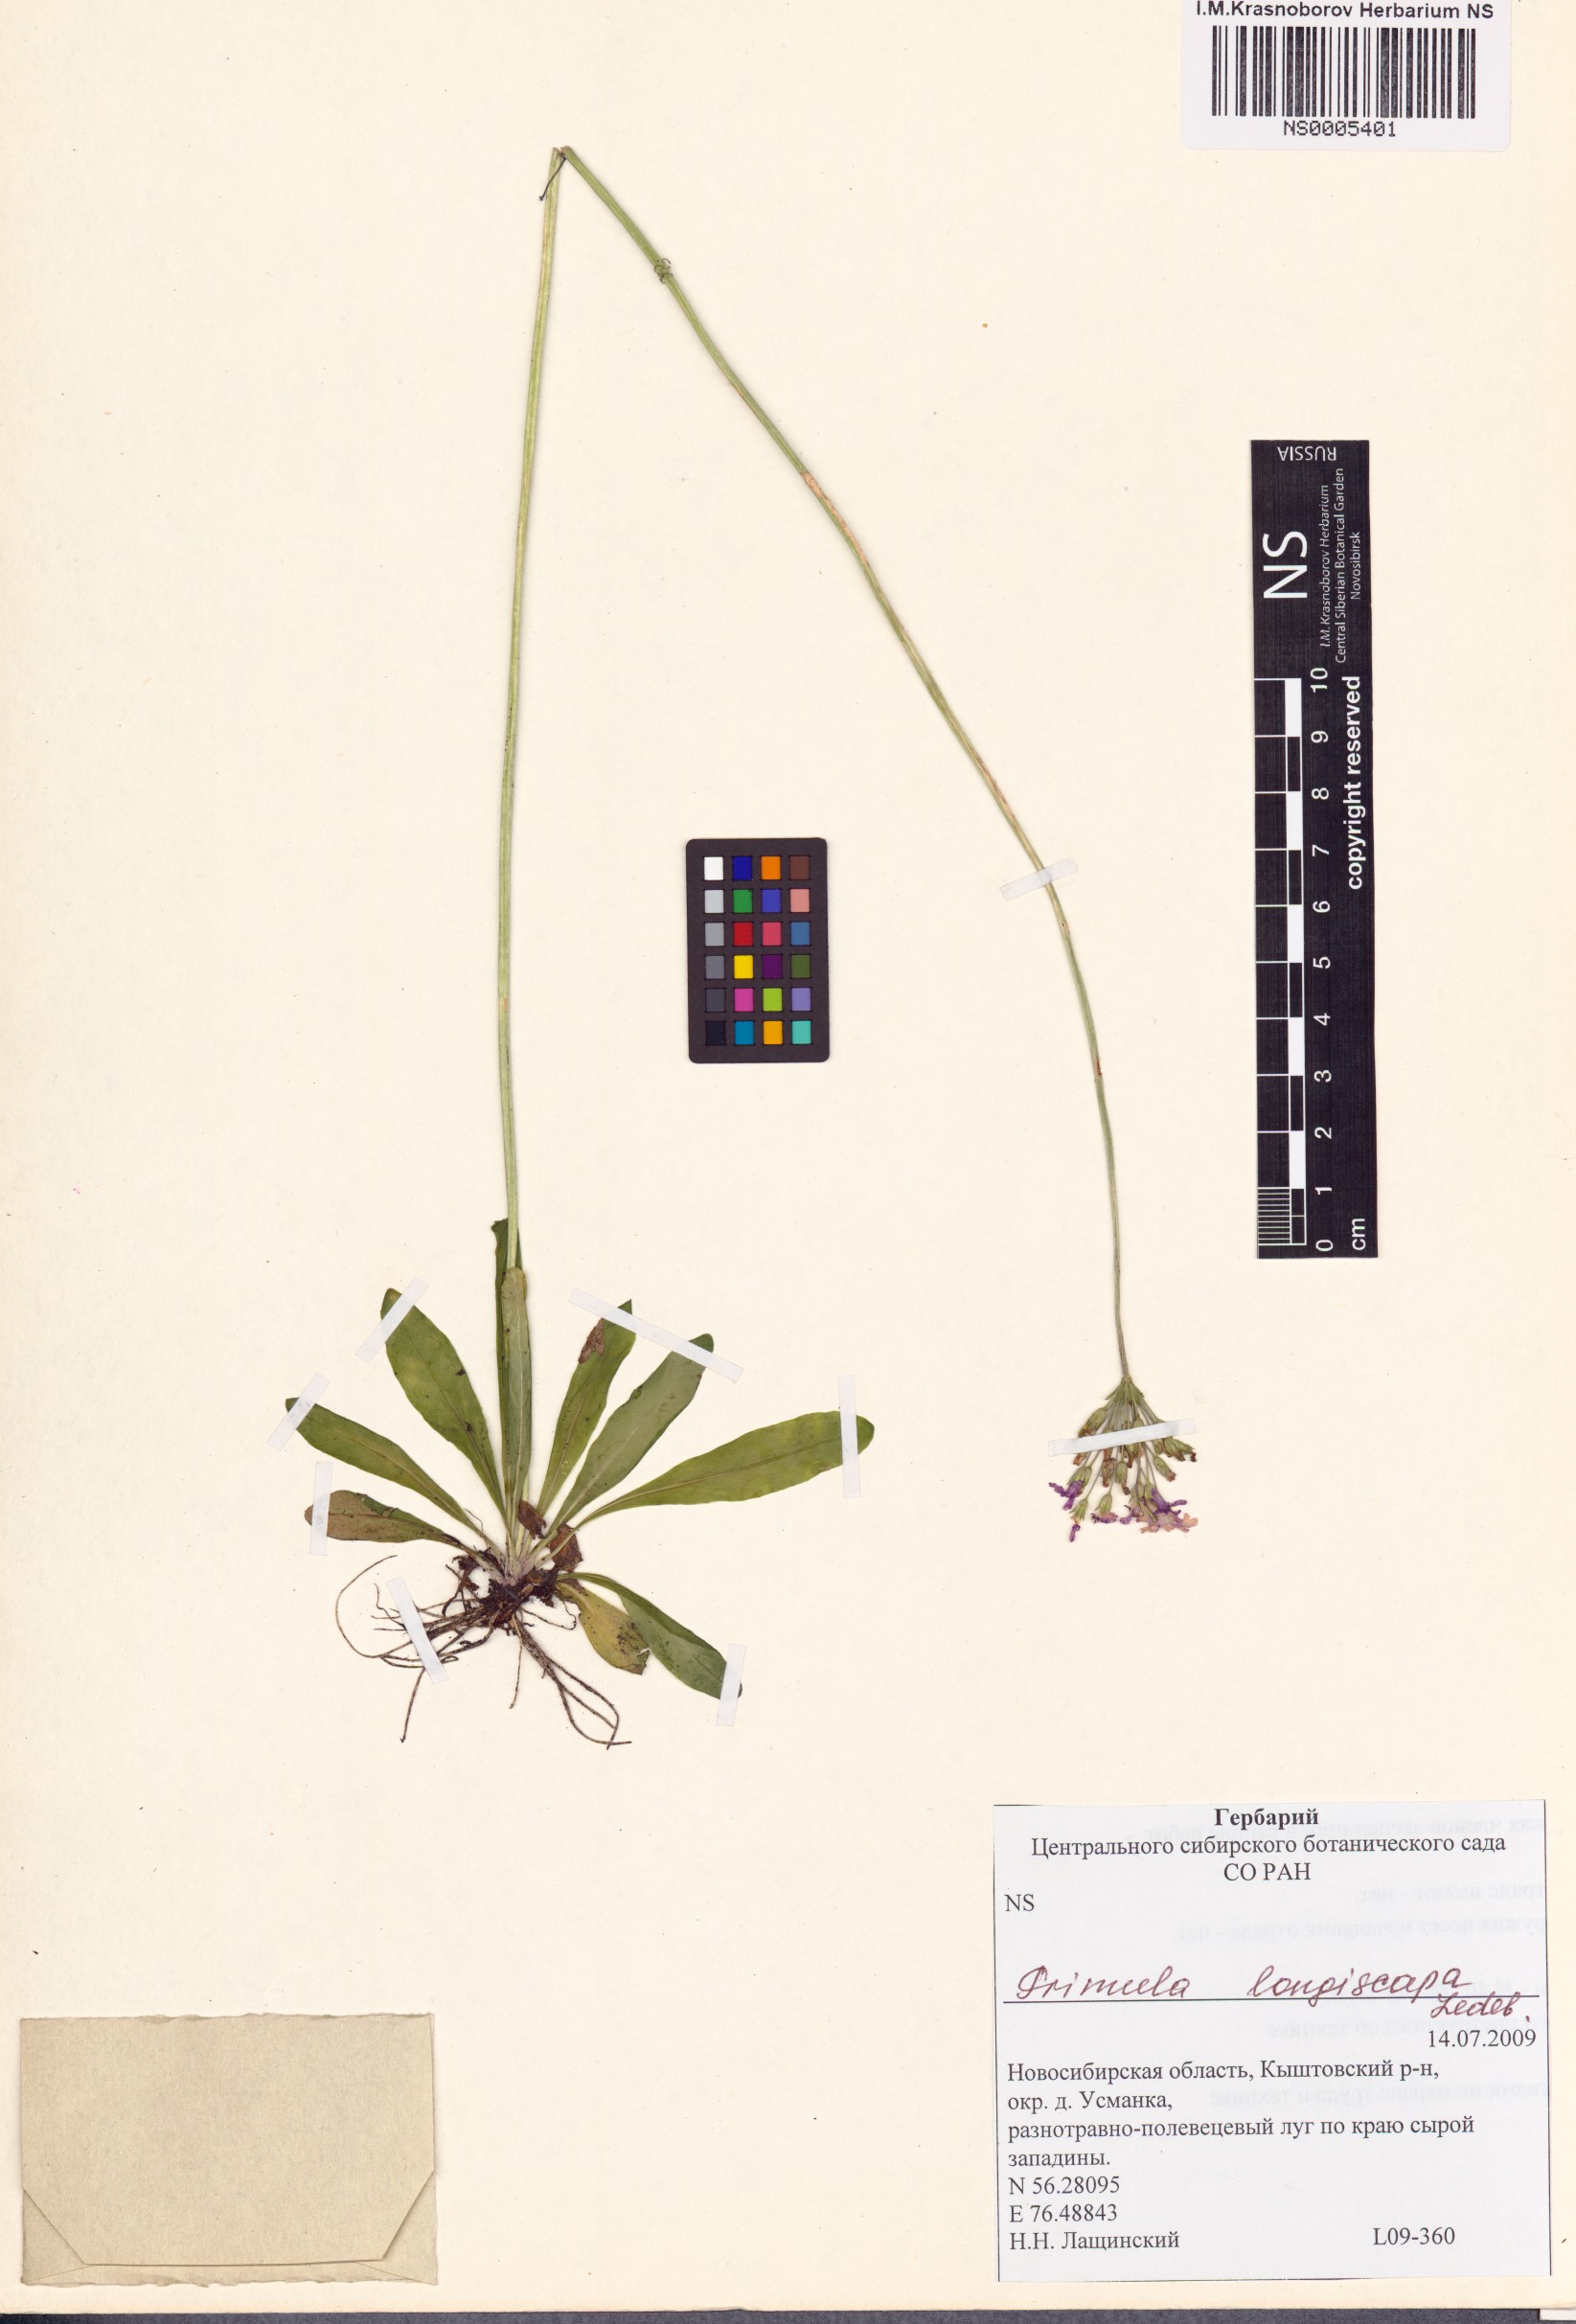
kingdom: Plantae
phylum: Tracheophyta
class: Magnoliopsida
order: Ericales
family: Primulaceae
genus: Primula
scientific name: Primula longiscapa
